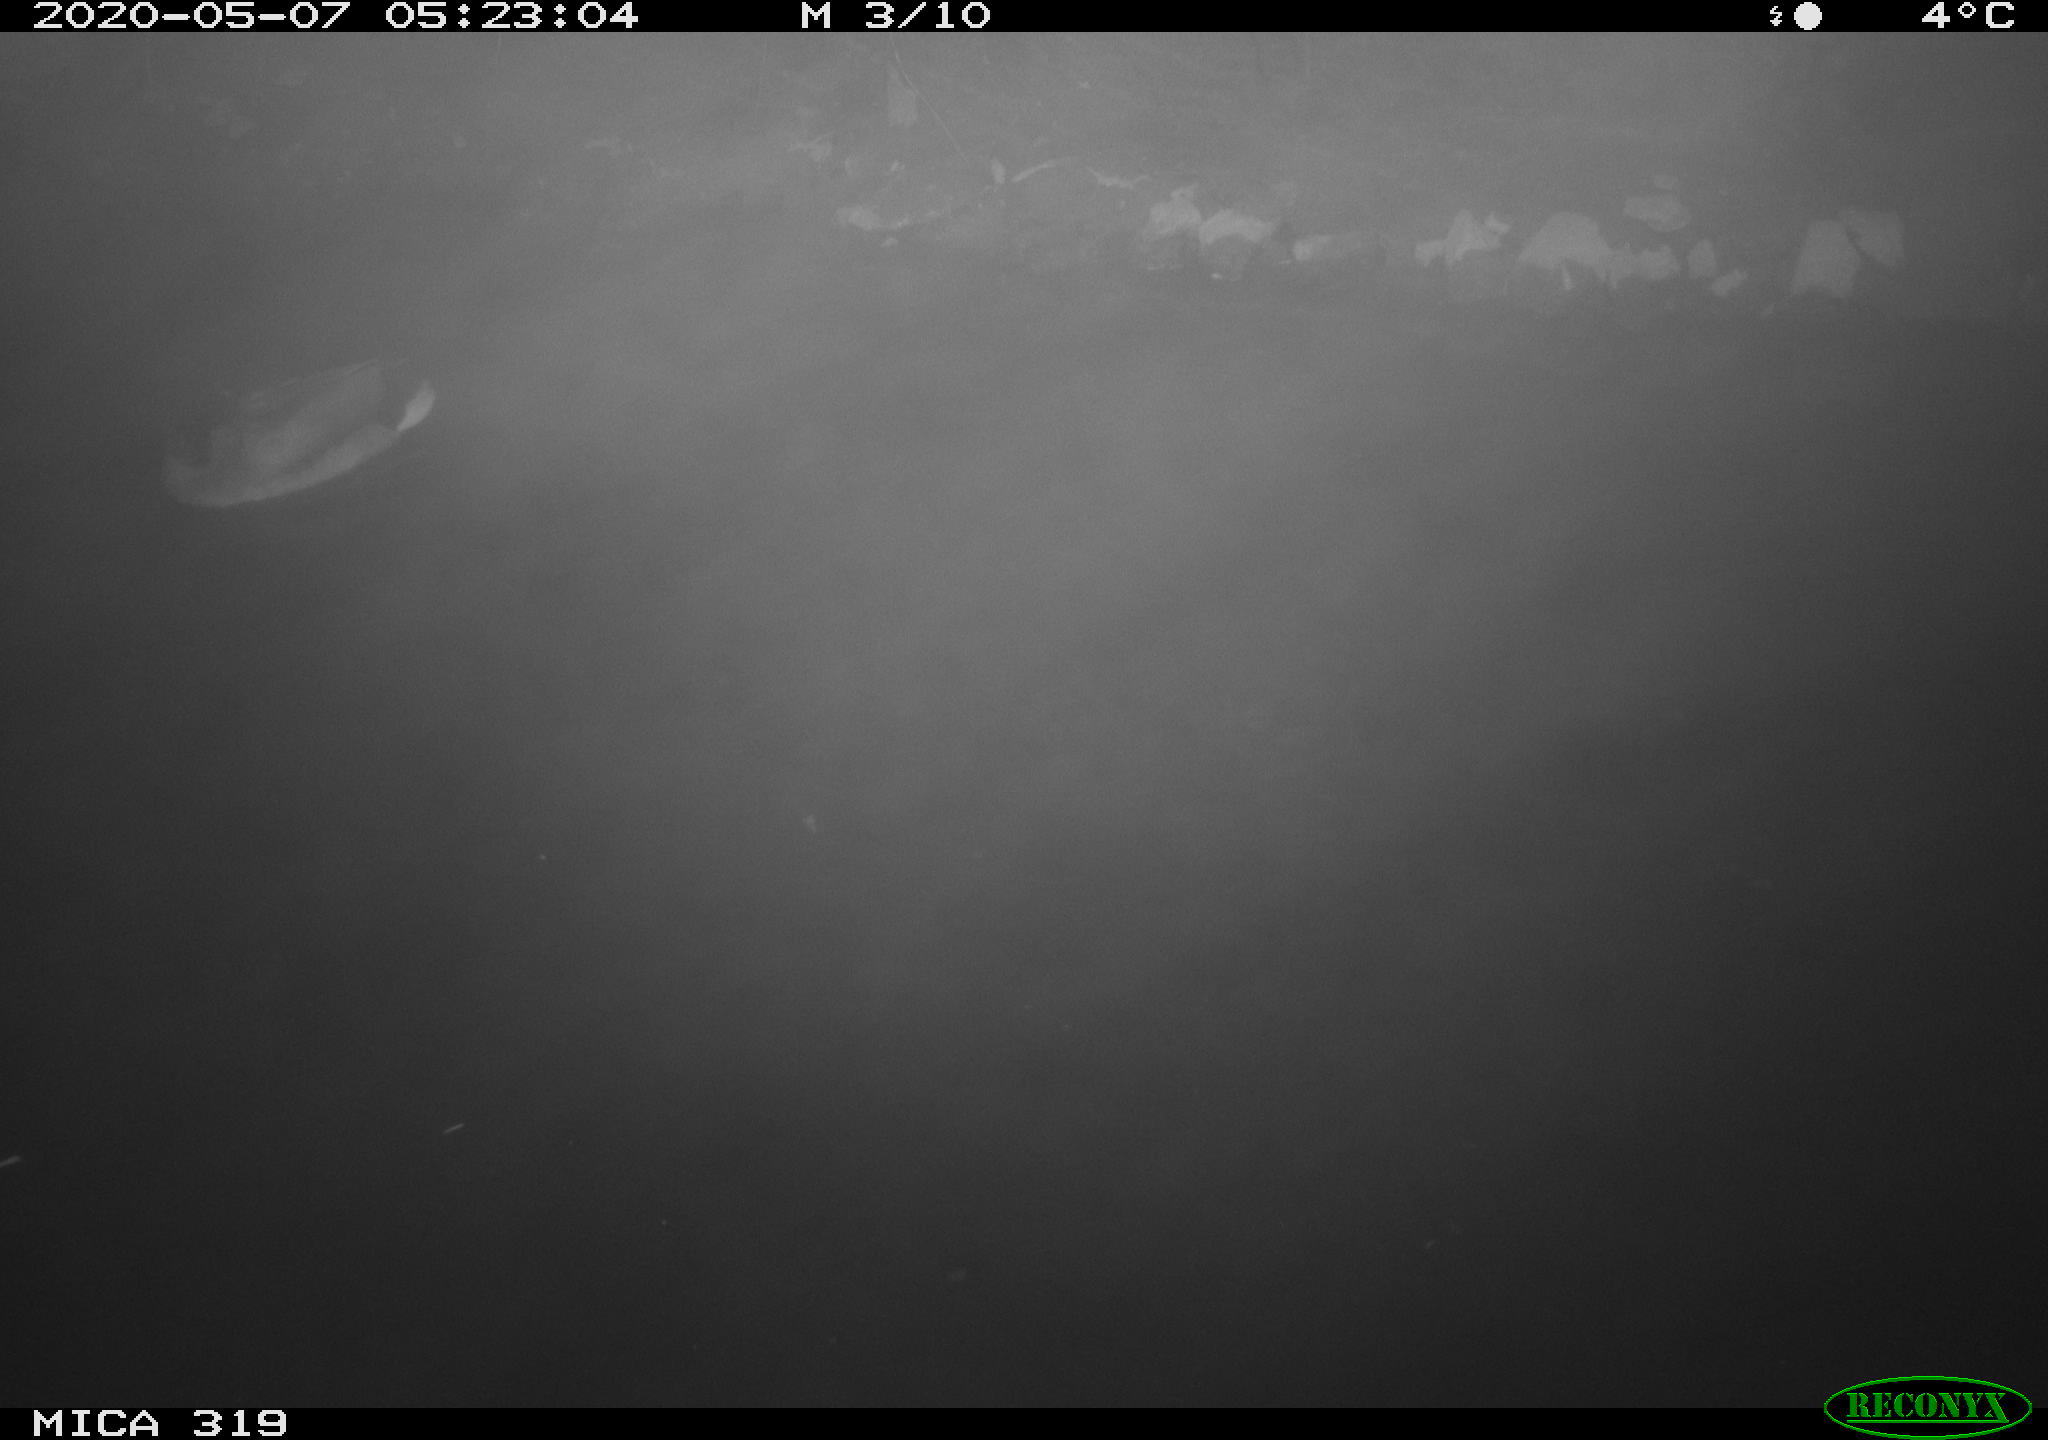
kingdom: Animalia
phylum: Chordata
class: Aves
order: Anseriformes
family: Anatidae
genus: Anas
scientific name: Anas platyrhynchos
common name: Mallard
